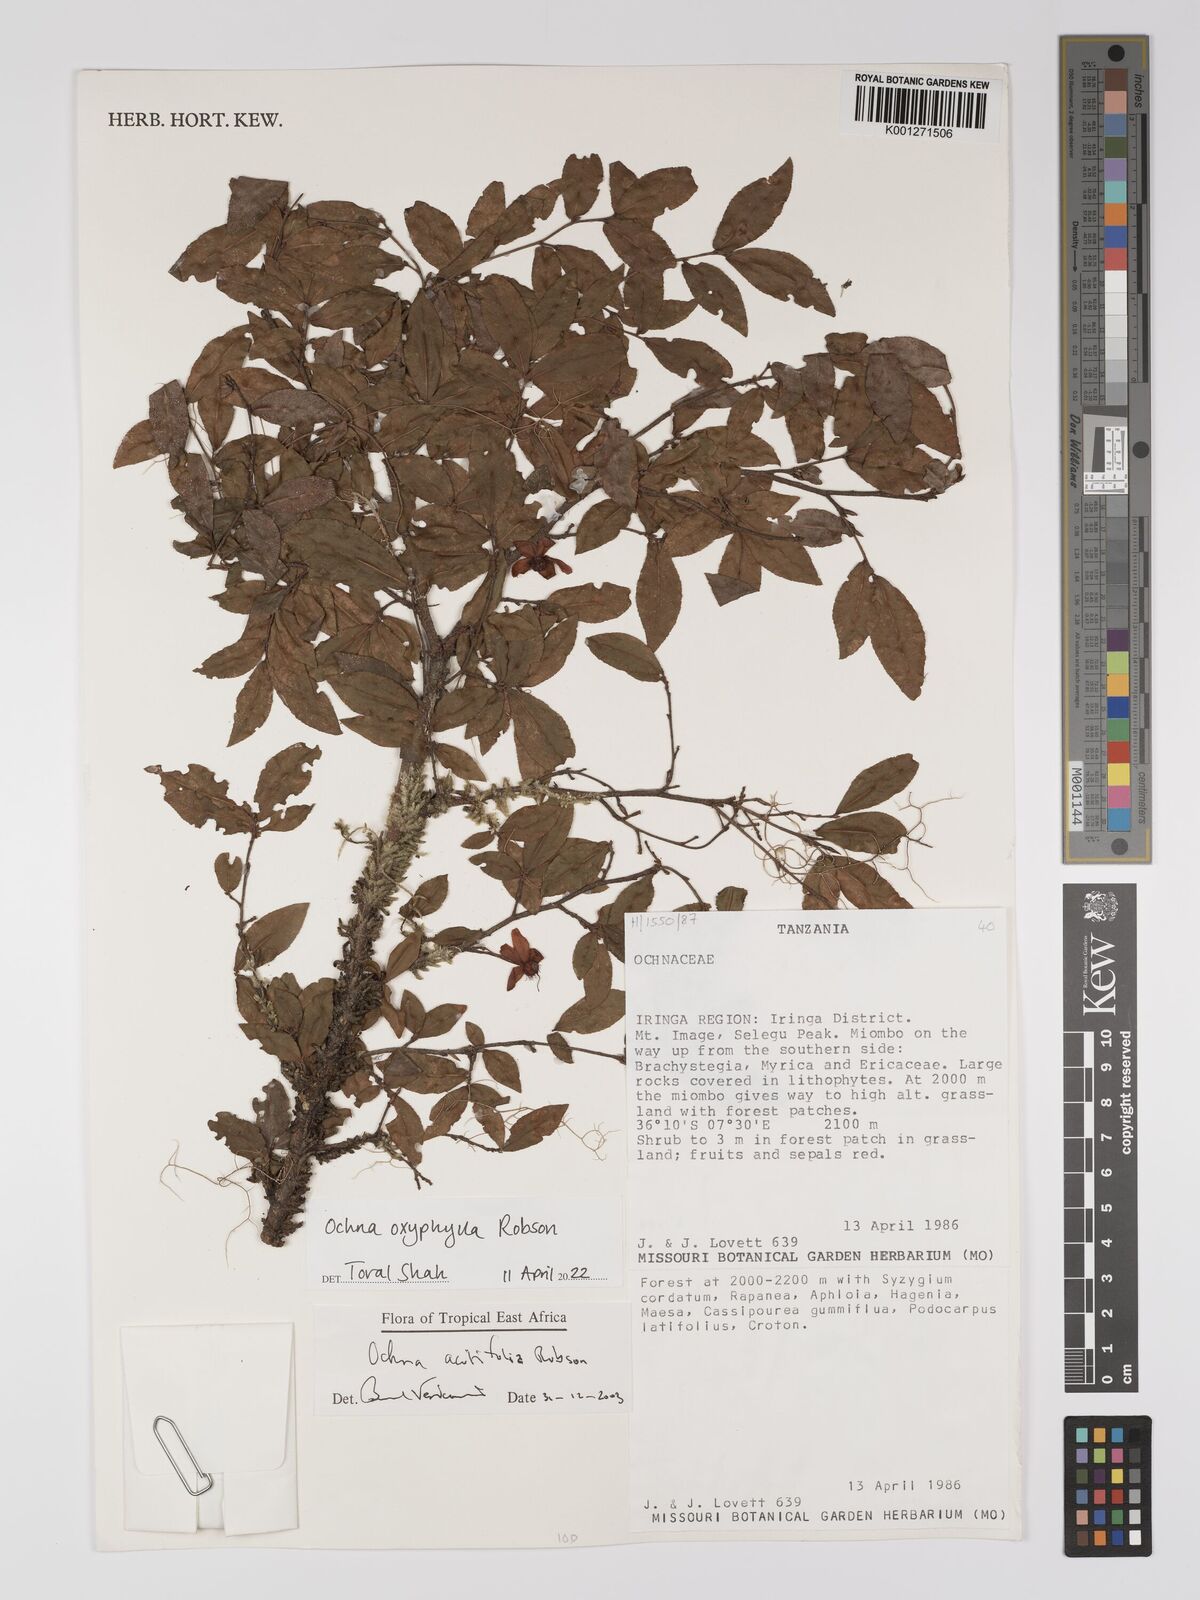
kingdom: Plantae
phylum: Tracheophyta
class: Magnoliopsida
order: Malpighiales
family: Ochnaceae
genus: Ochna
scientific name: Ochna oxyphylla
